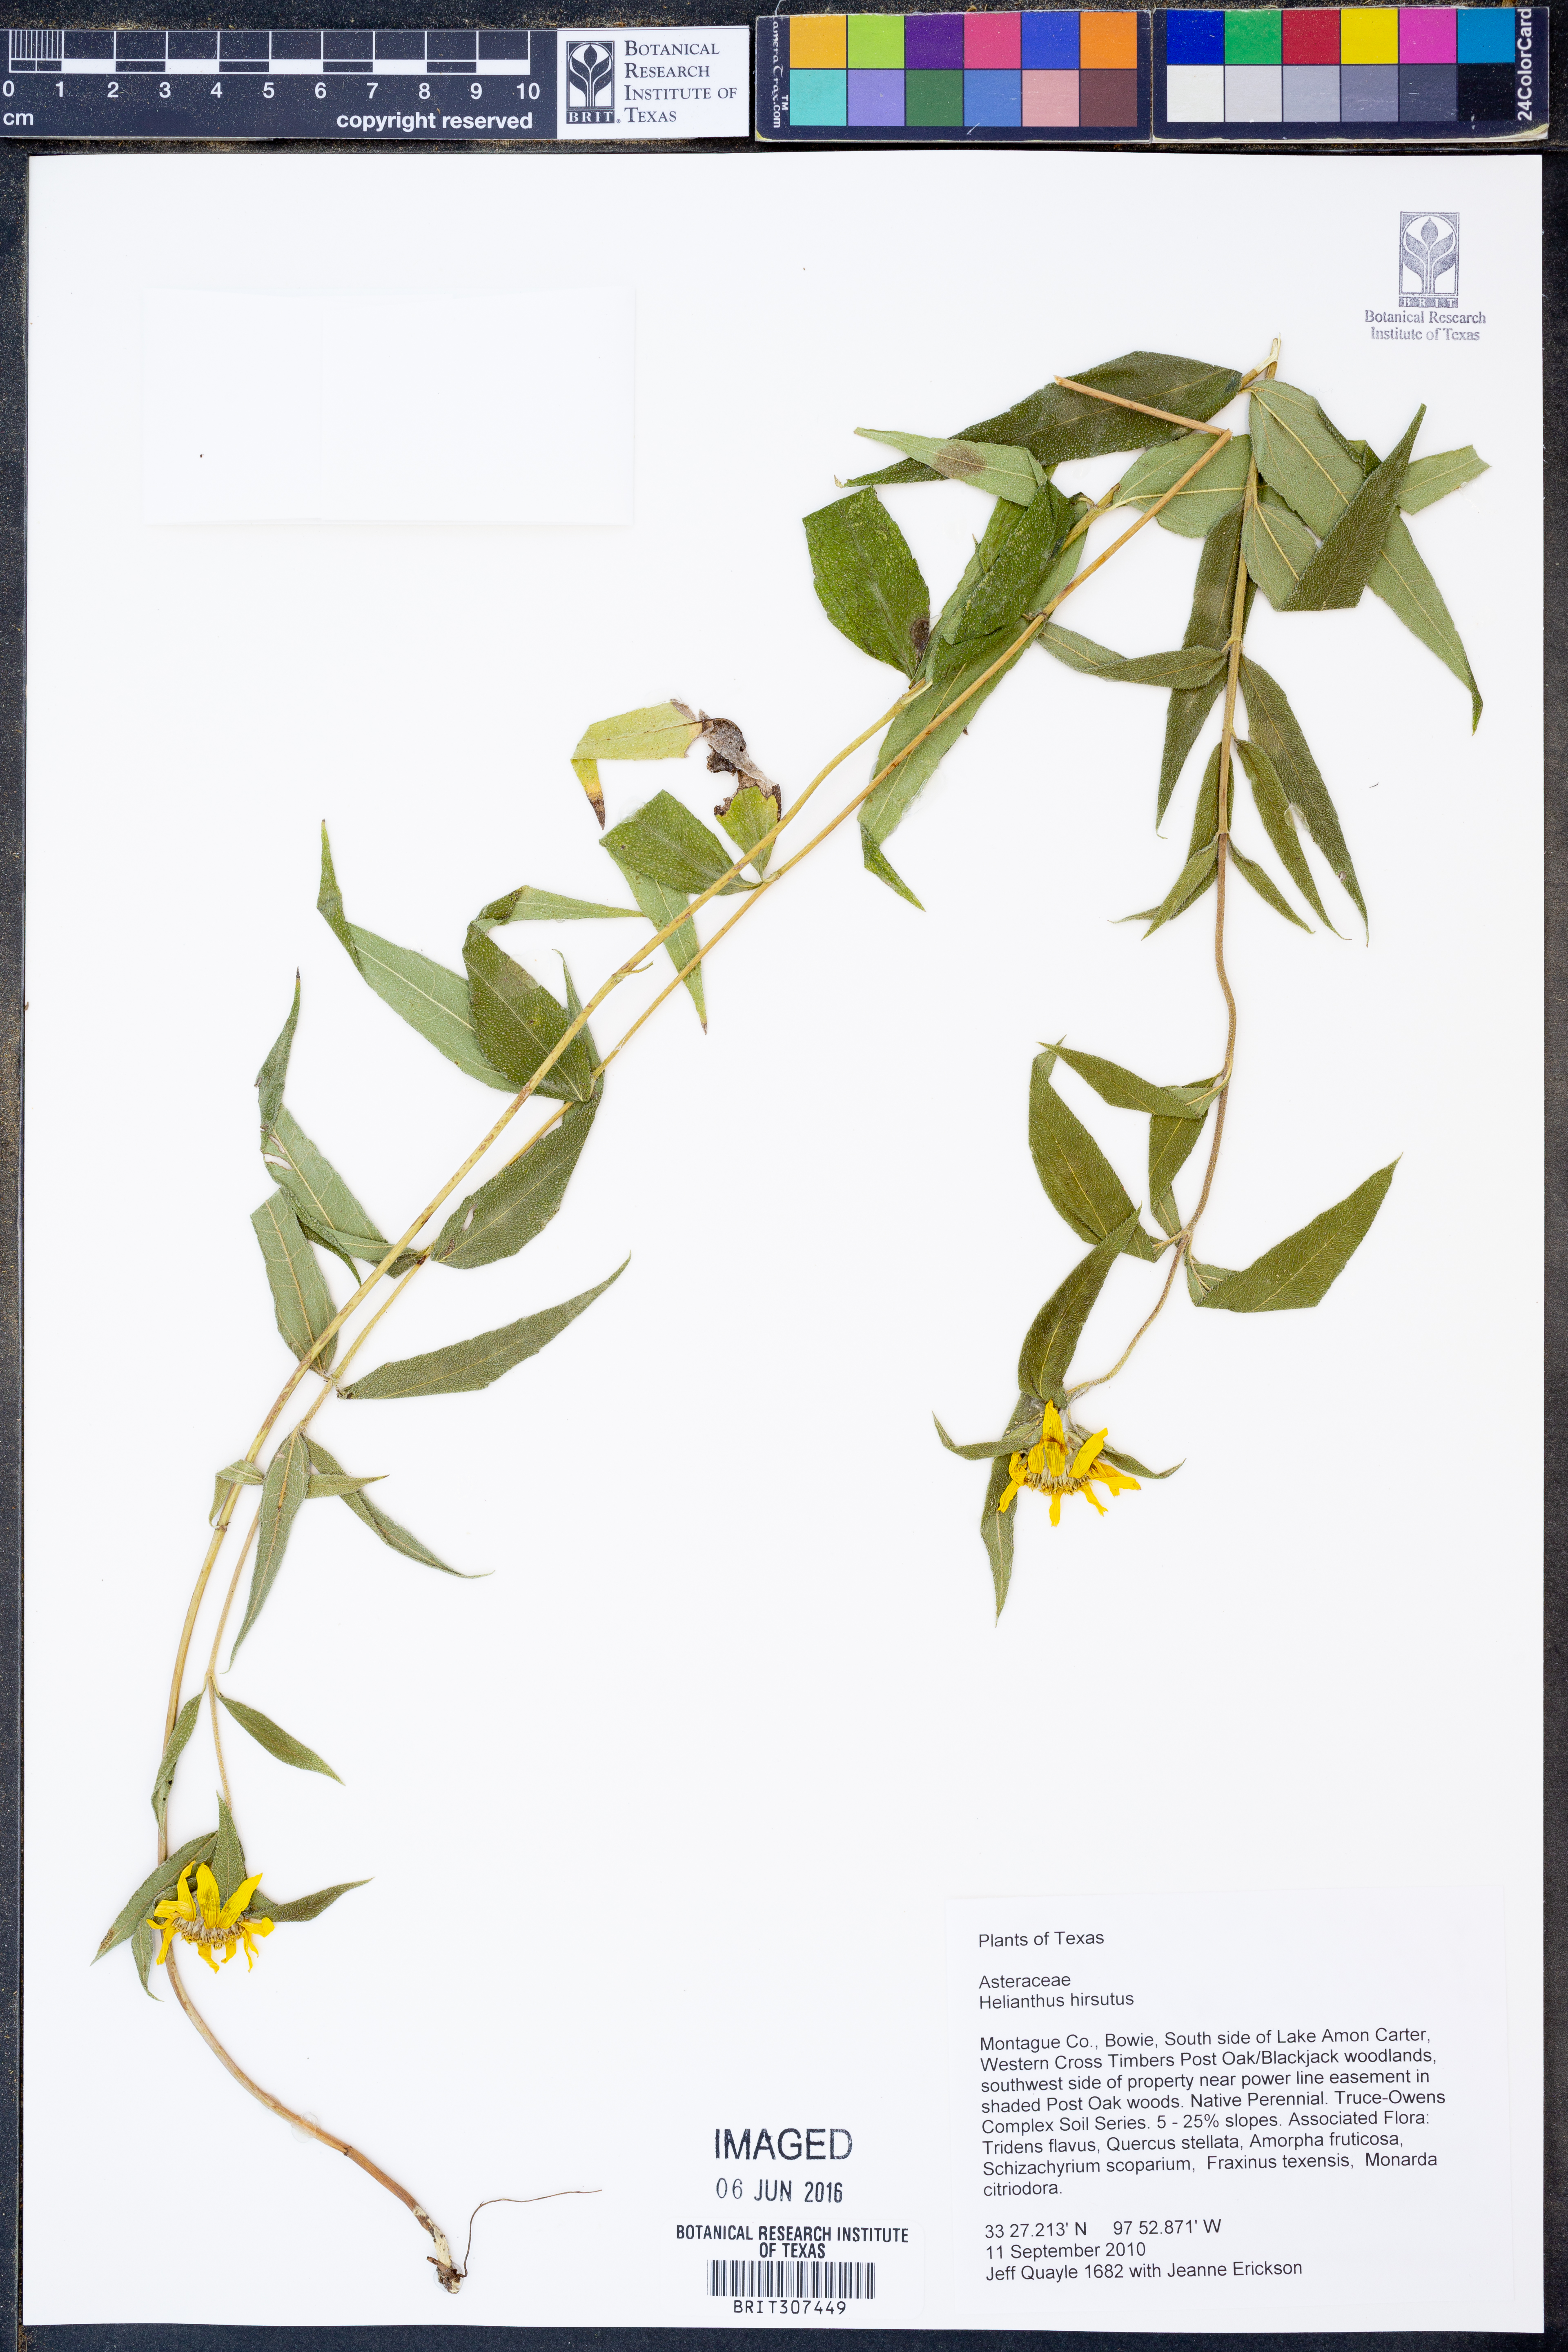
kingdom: Plantae
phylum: Tracheophyta
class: Magnoliopsida
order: Asterales
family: Asteraceae
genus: Helianthus
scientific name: Helianthus hirsutus
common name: Hairy sunflower
